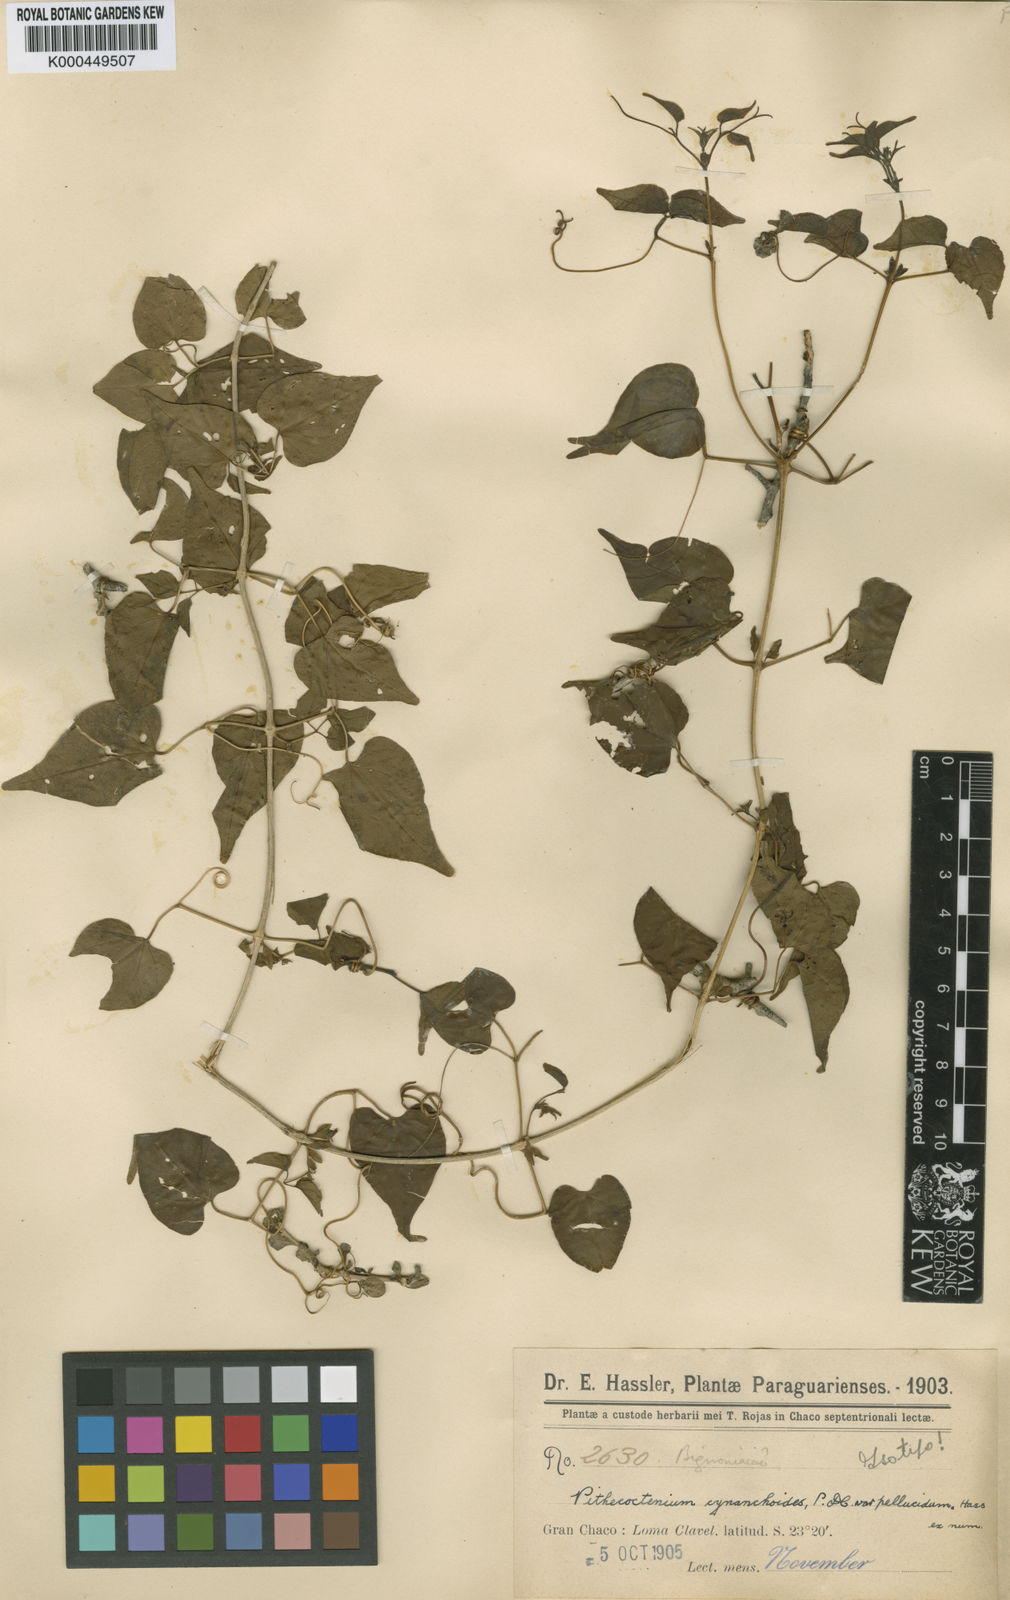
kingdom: Plantae
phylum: Tracheophyta
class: Magnoliopsida
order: Lamiales
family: Bignoniaceae
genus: Amphilophium
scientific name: Amphilophium carolinae
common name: Monkey's-comb
